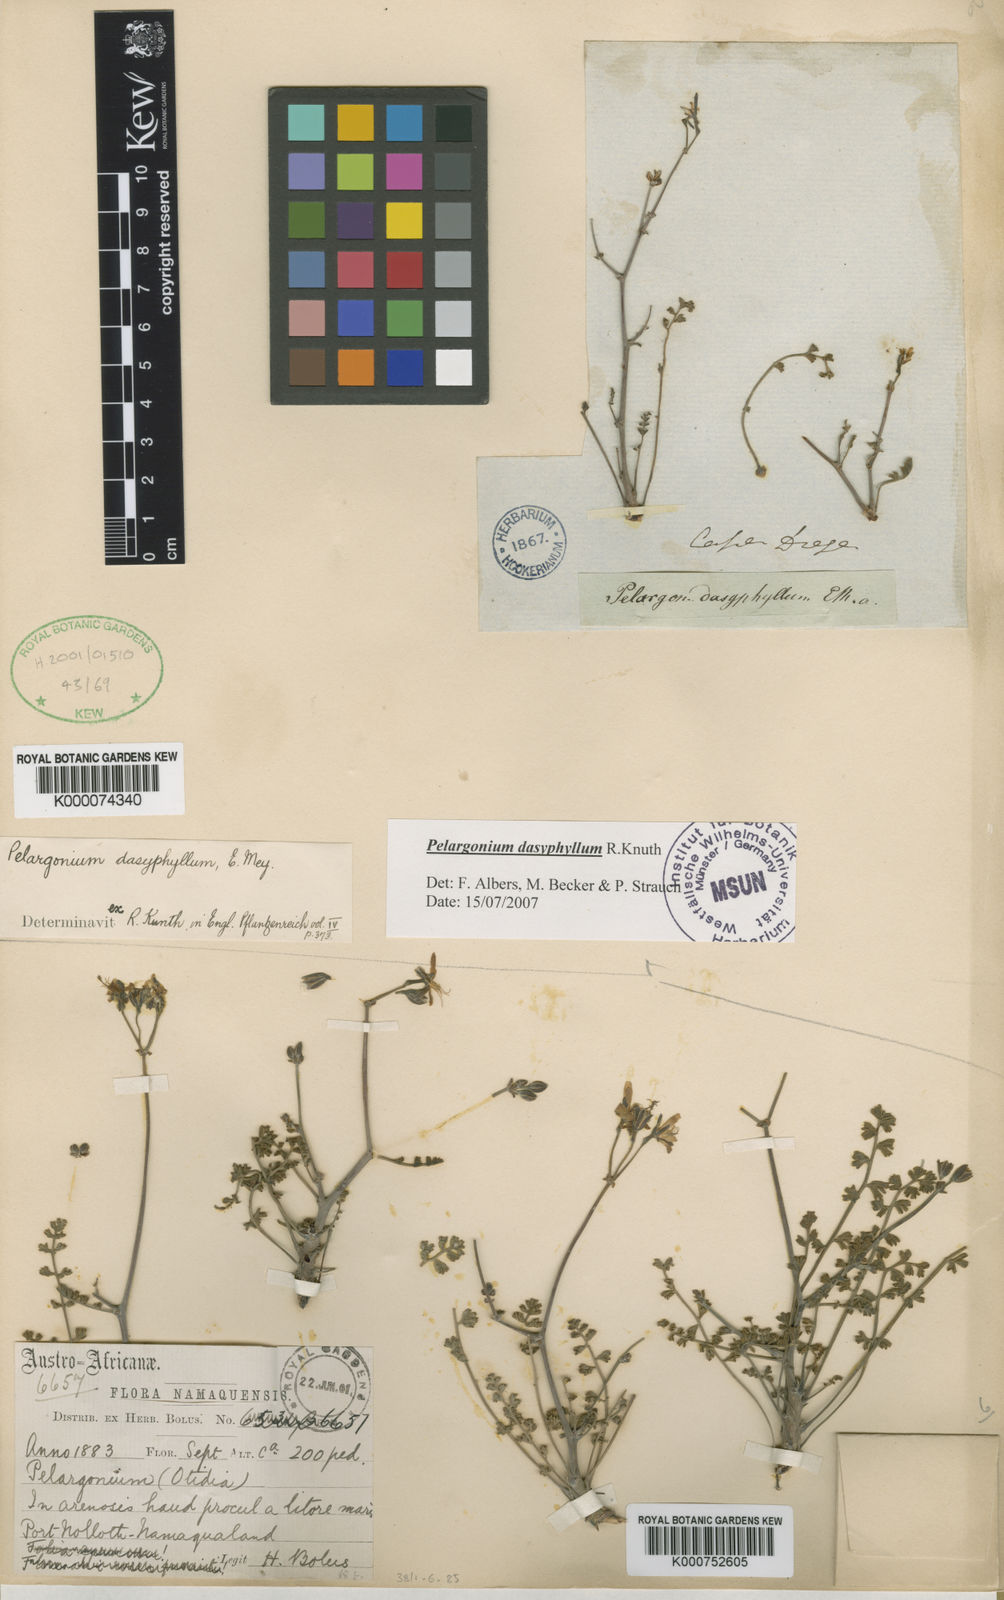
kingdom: Plantae
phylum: Tracheophyta
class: Magnoliopsida
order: Geraniales
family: Geraniaceae
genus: Pelargonium
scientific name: Pelargonium dasyphyllum
